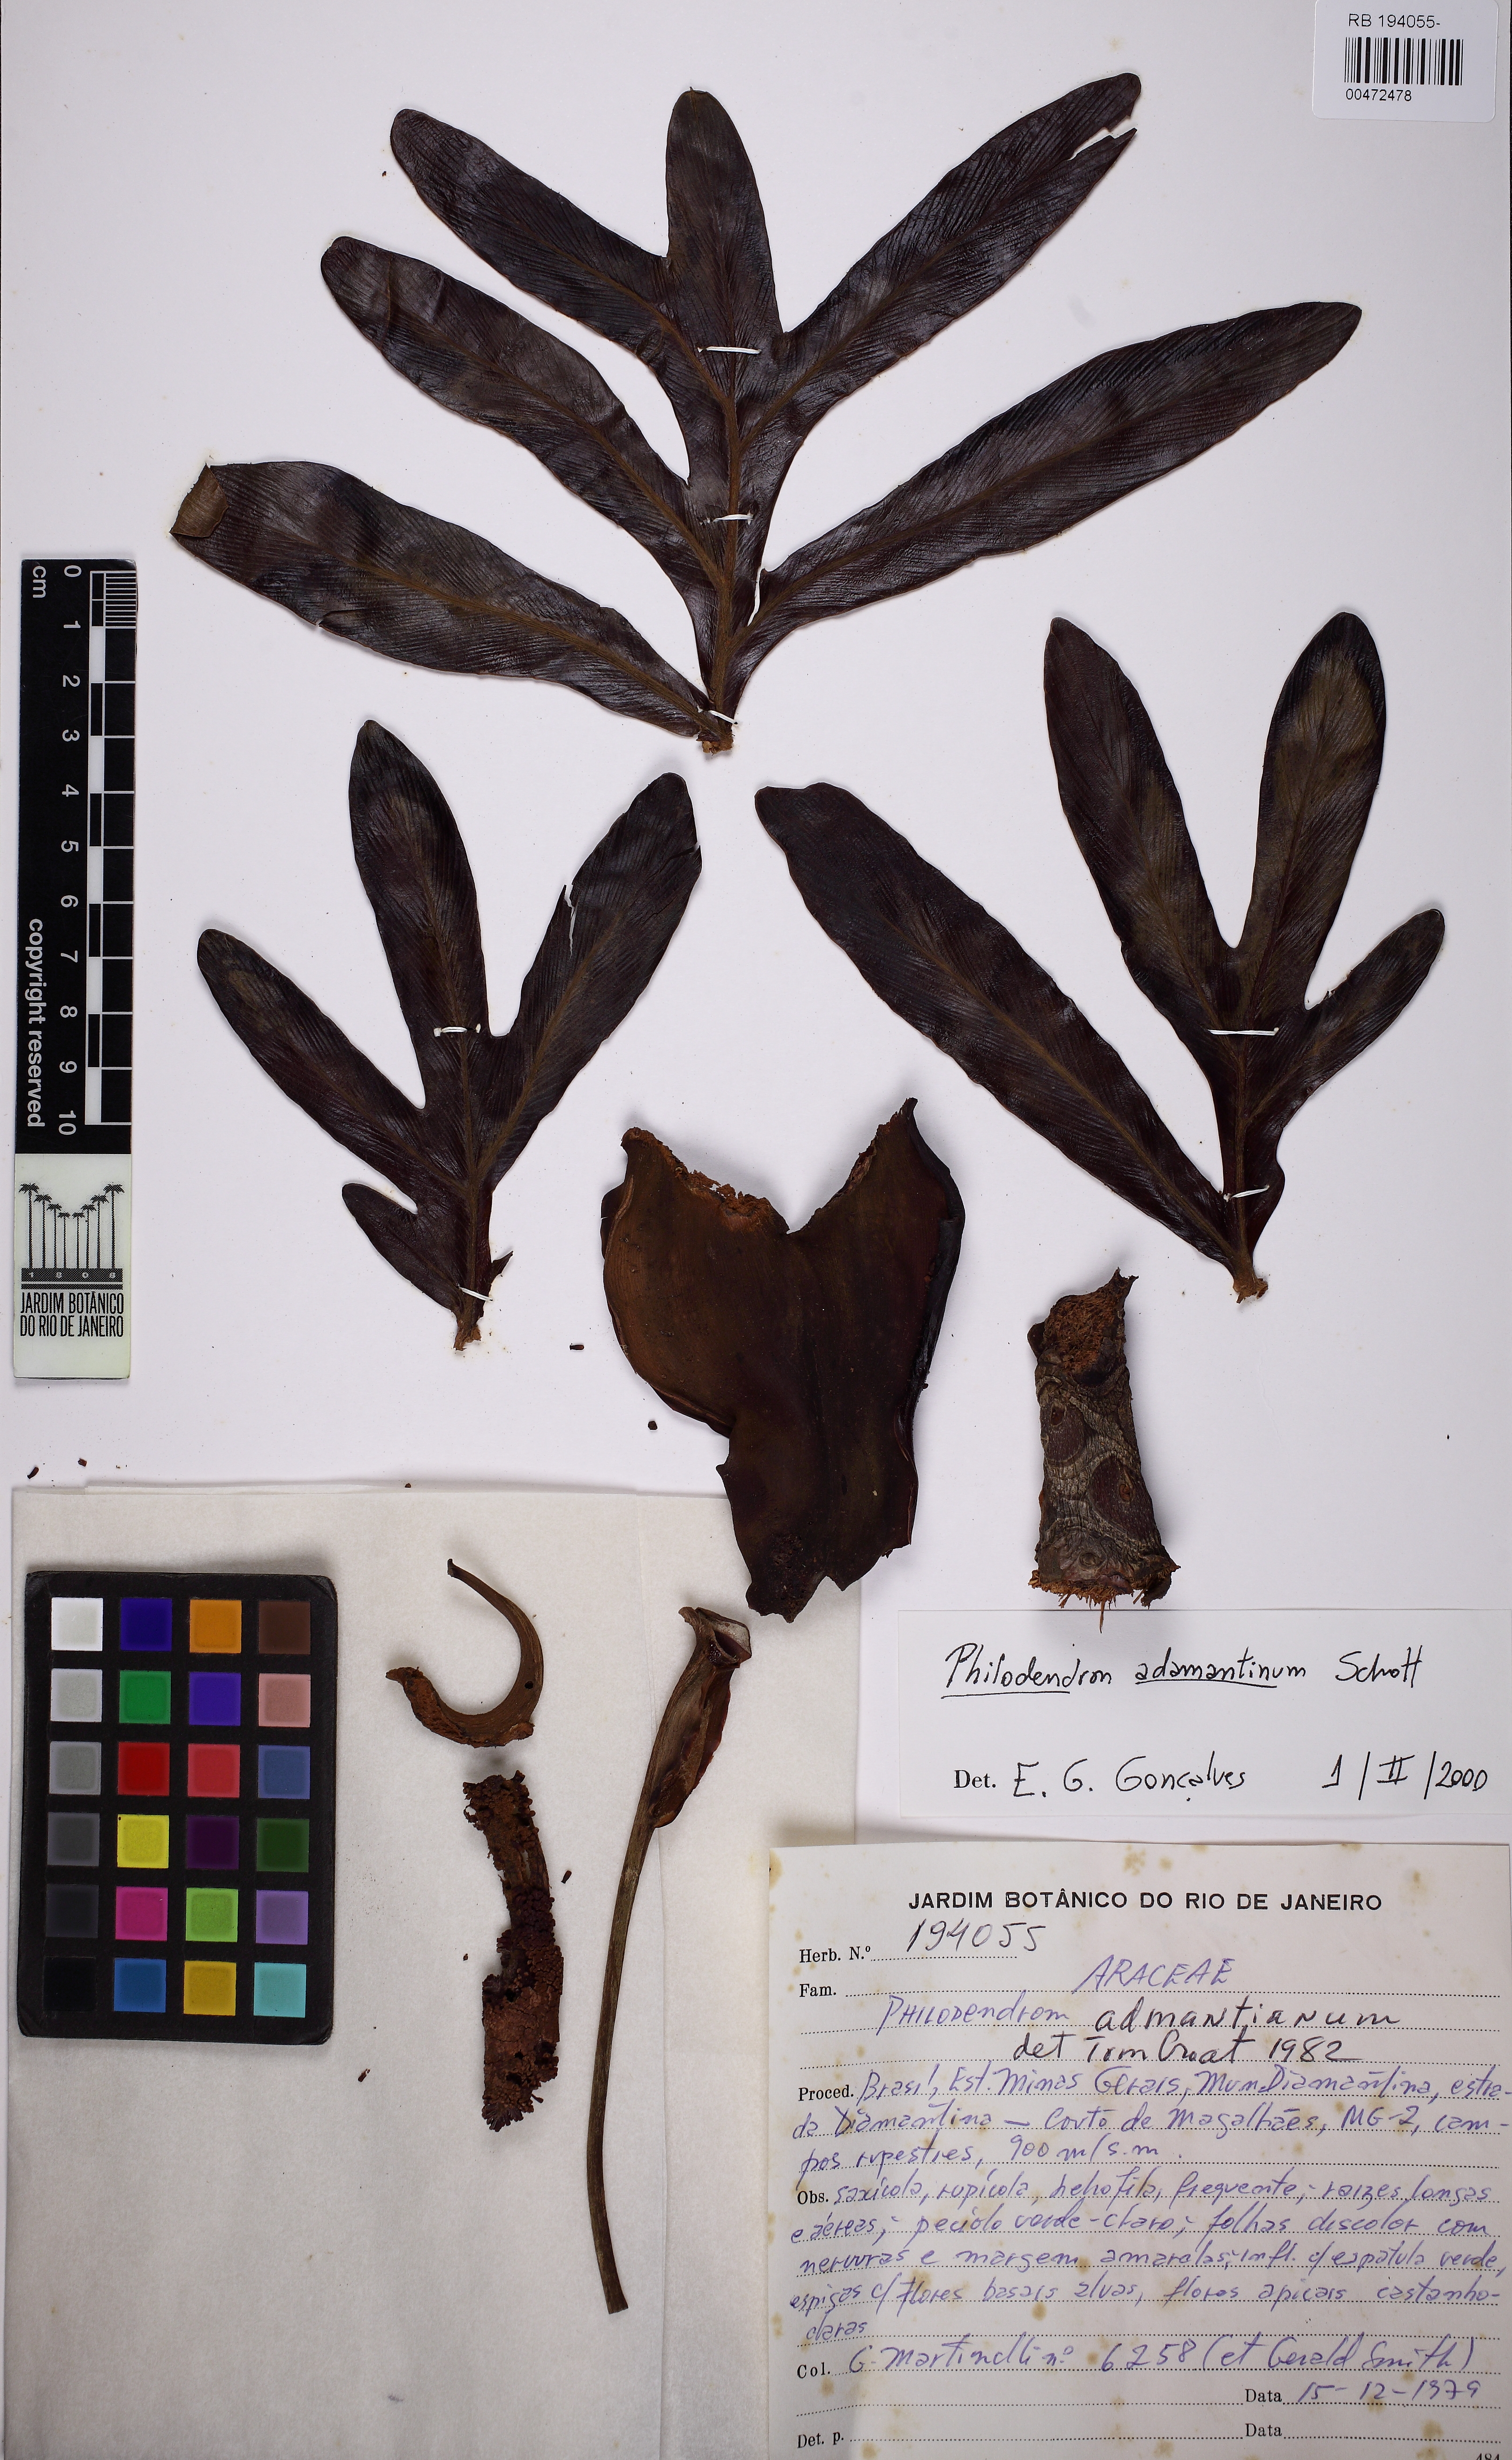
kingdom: Plantae
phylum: Tracheophyta
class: Liliopsida
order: Alismatales
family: Araceae
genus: Thaumatophyllum
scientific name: Thaumatophyllum adamantinum
